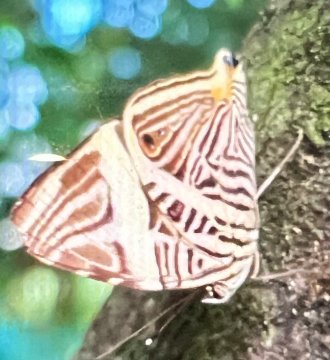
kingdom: Animalia
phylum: Arthropoda
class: Insecta
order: Lepidoptera
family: Nymphalidae
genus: Colobura
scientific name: Colobura
